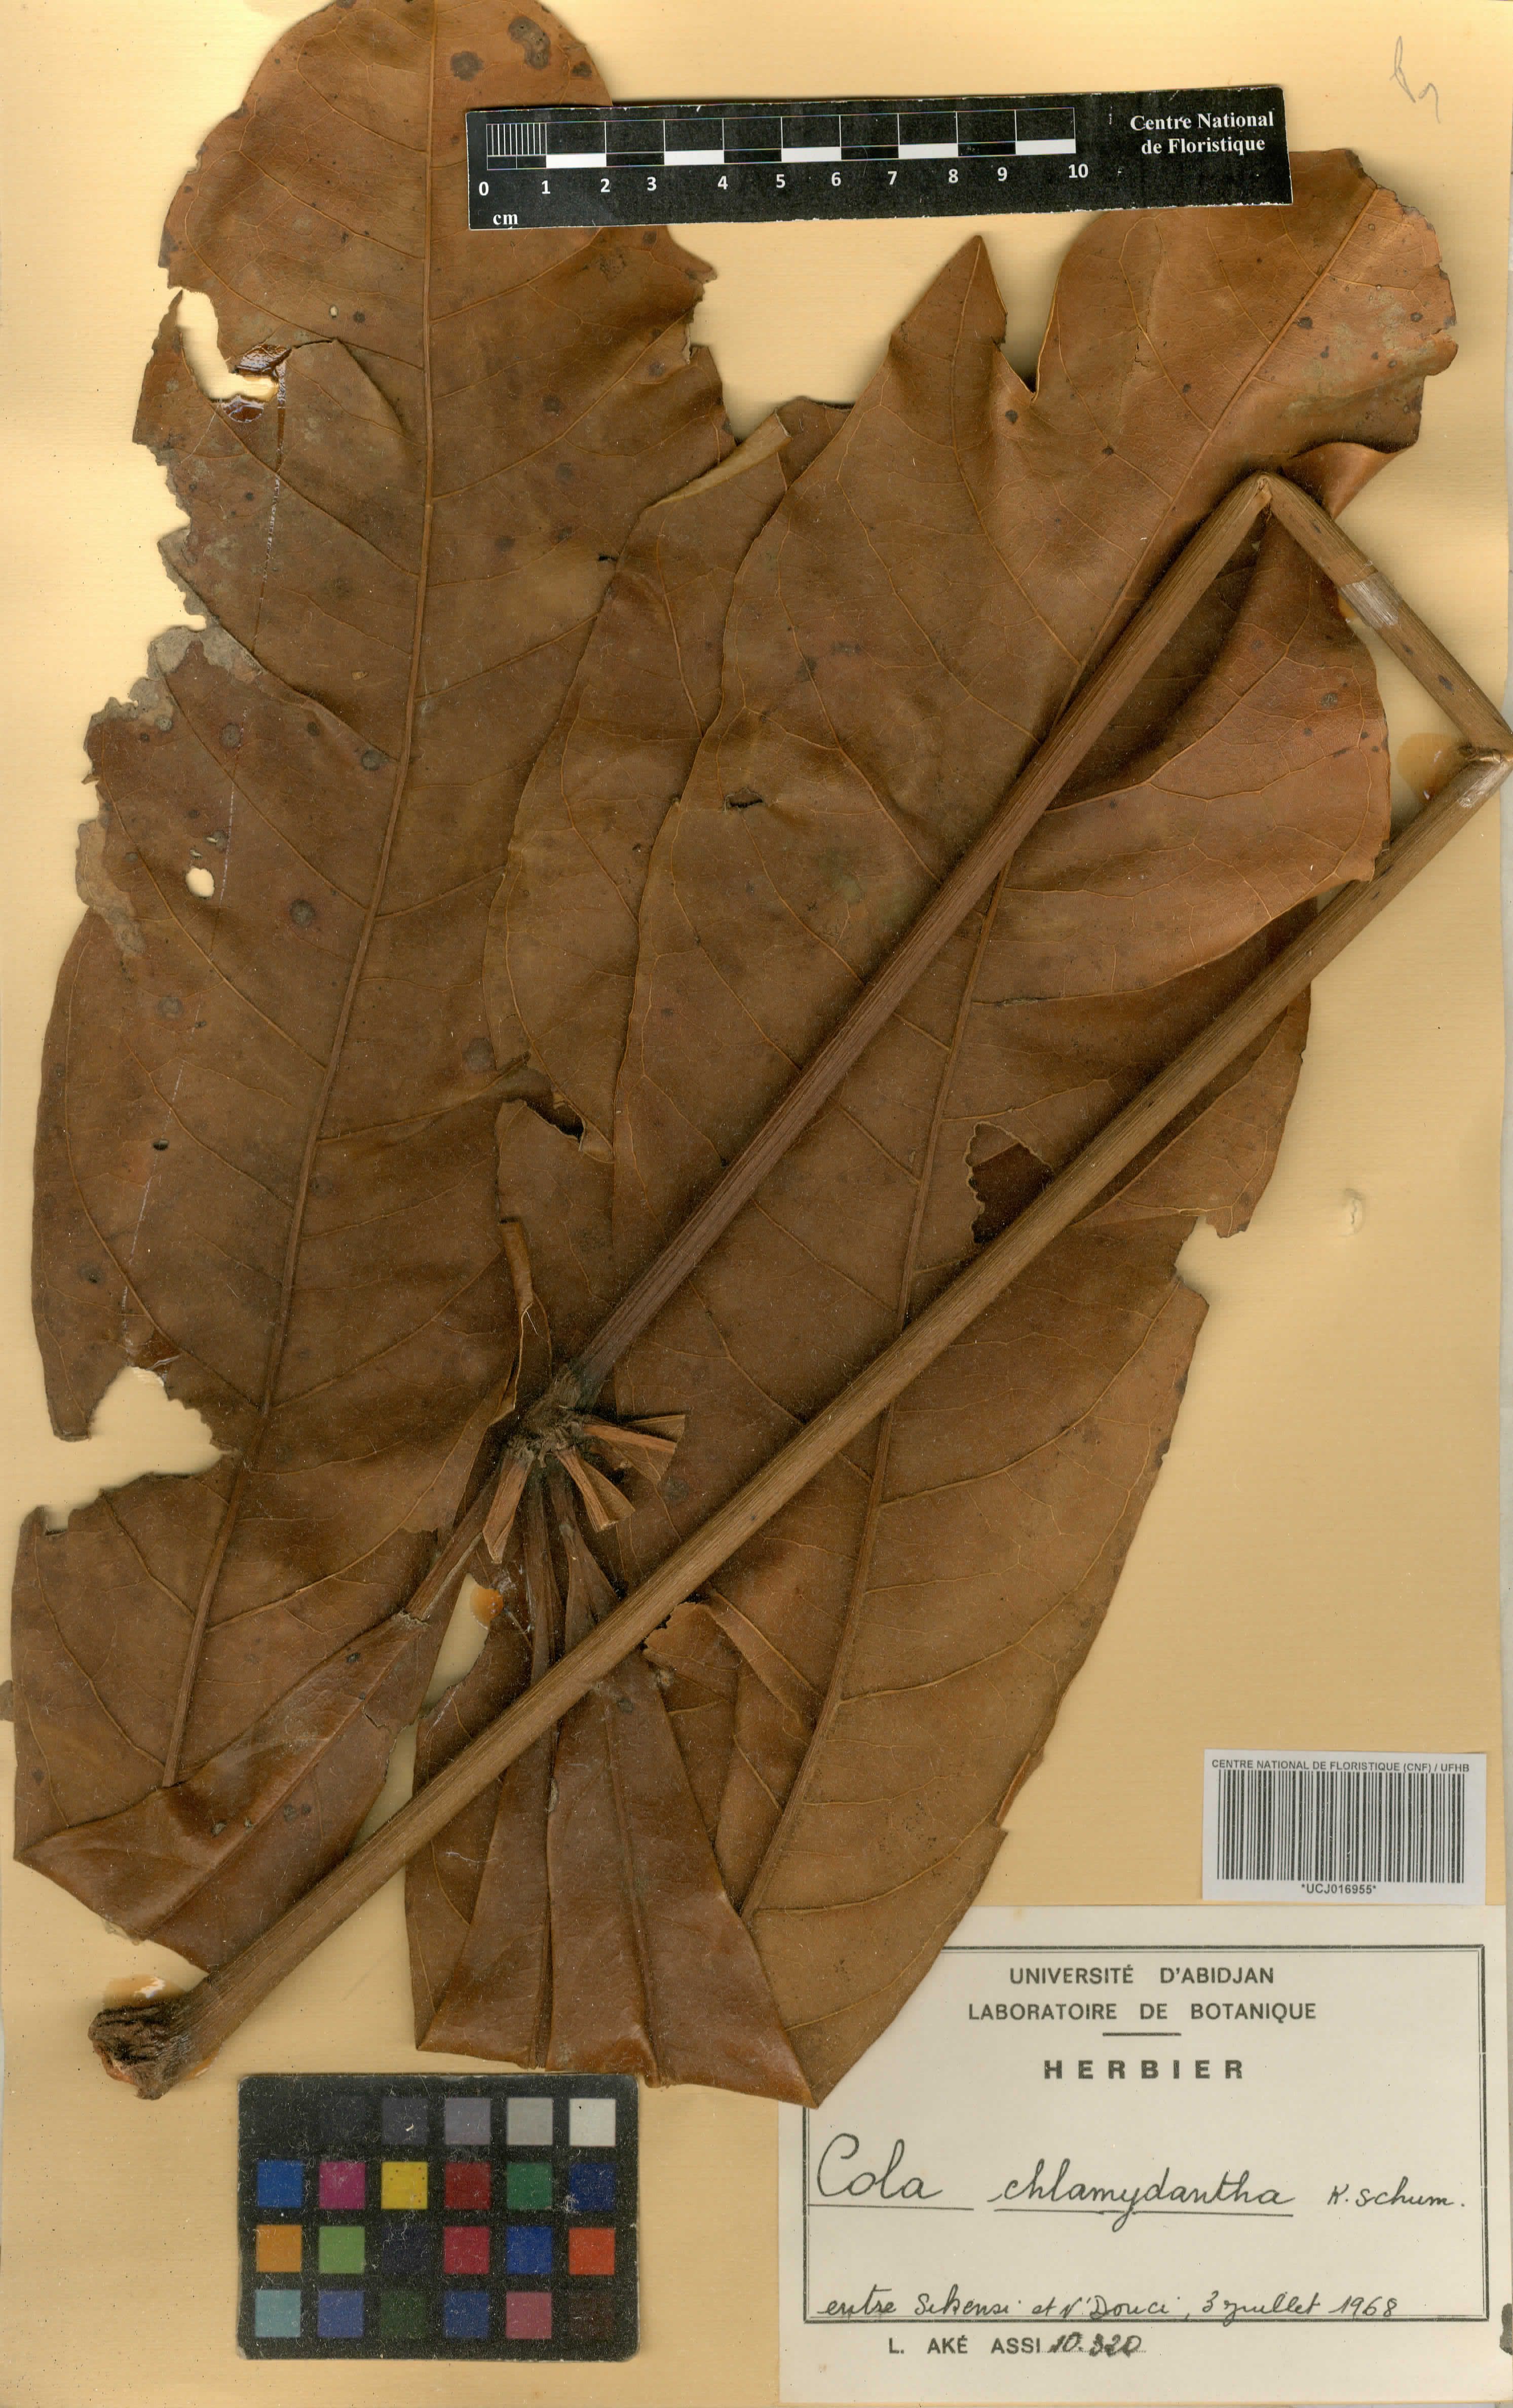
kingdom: Plantae
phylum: Tracheophyta
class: Magnoliopsida
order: Malvales
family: Malvaceae
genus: Cola
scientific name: Cola chlamydantha
